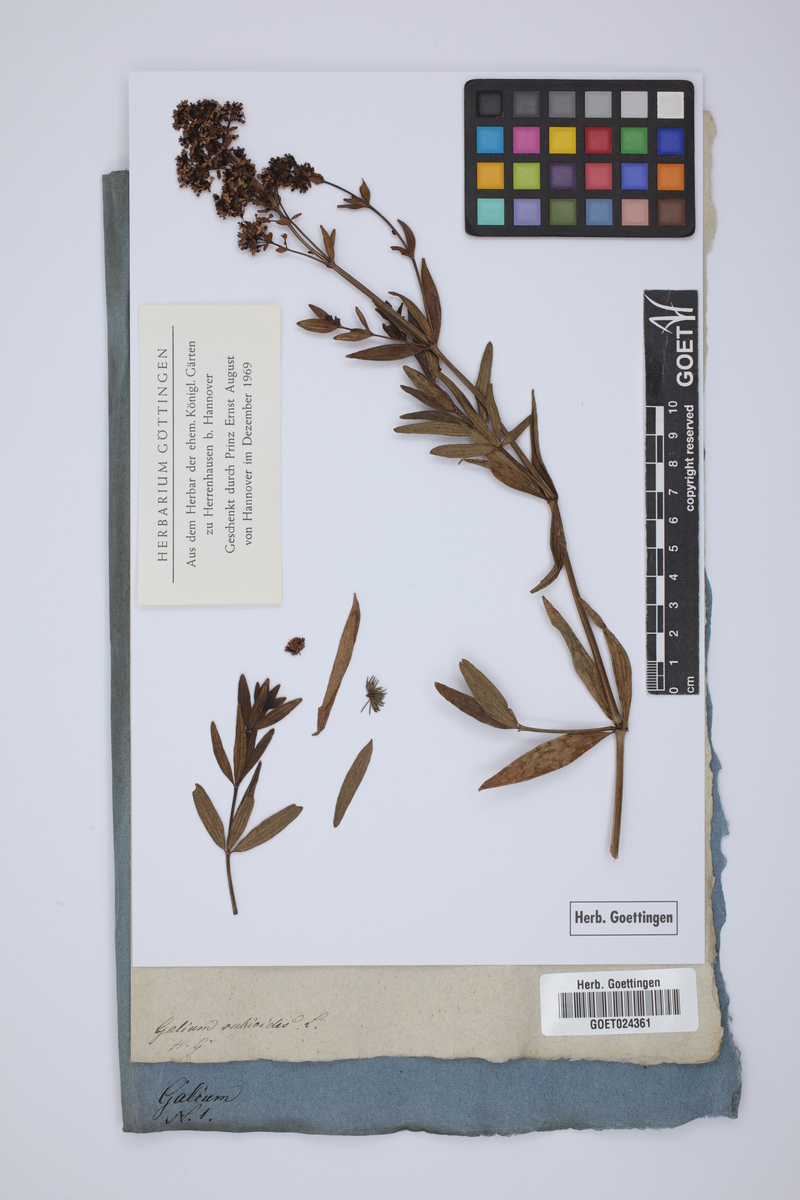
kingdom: Plantae
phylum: Tracheophyta
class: Magnoliopsida
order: Gentianales
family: Rubiaceae
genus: Galium
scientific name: Galium rubioides
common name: European bedstraw
